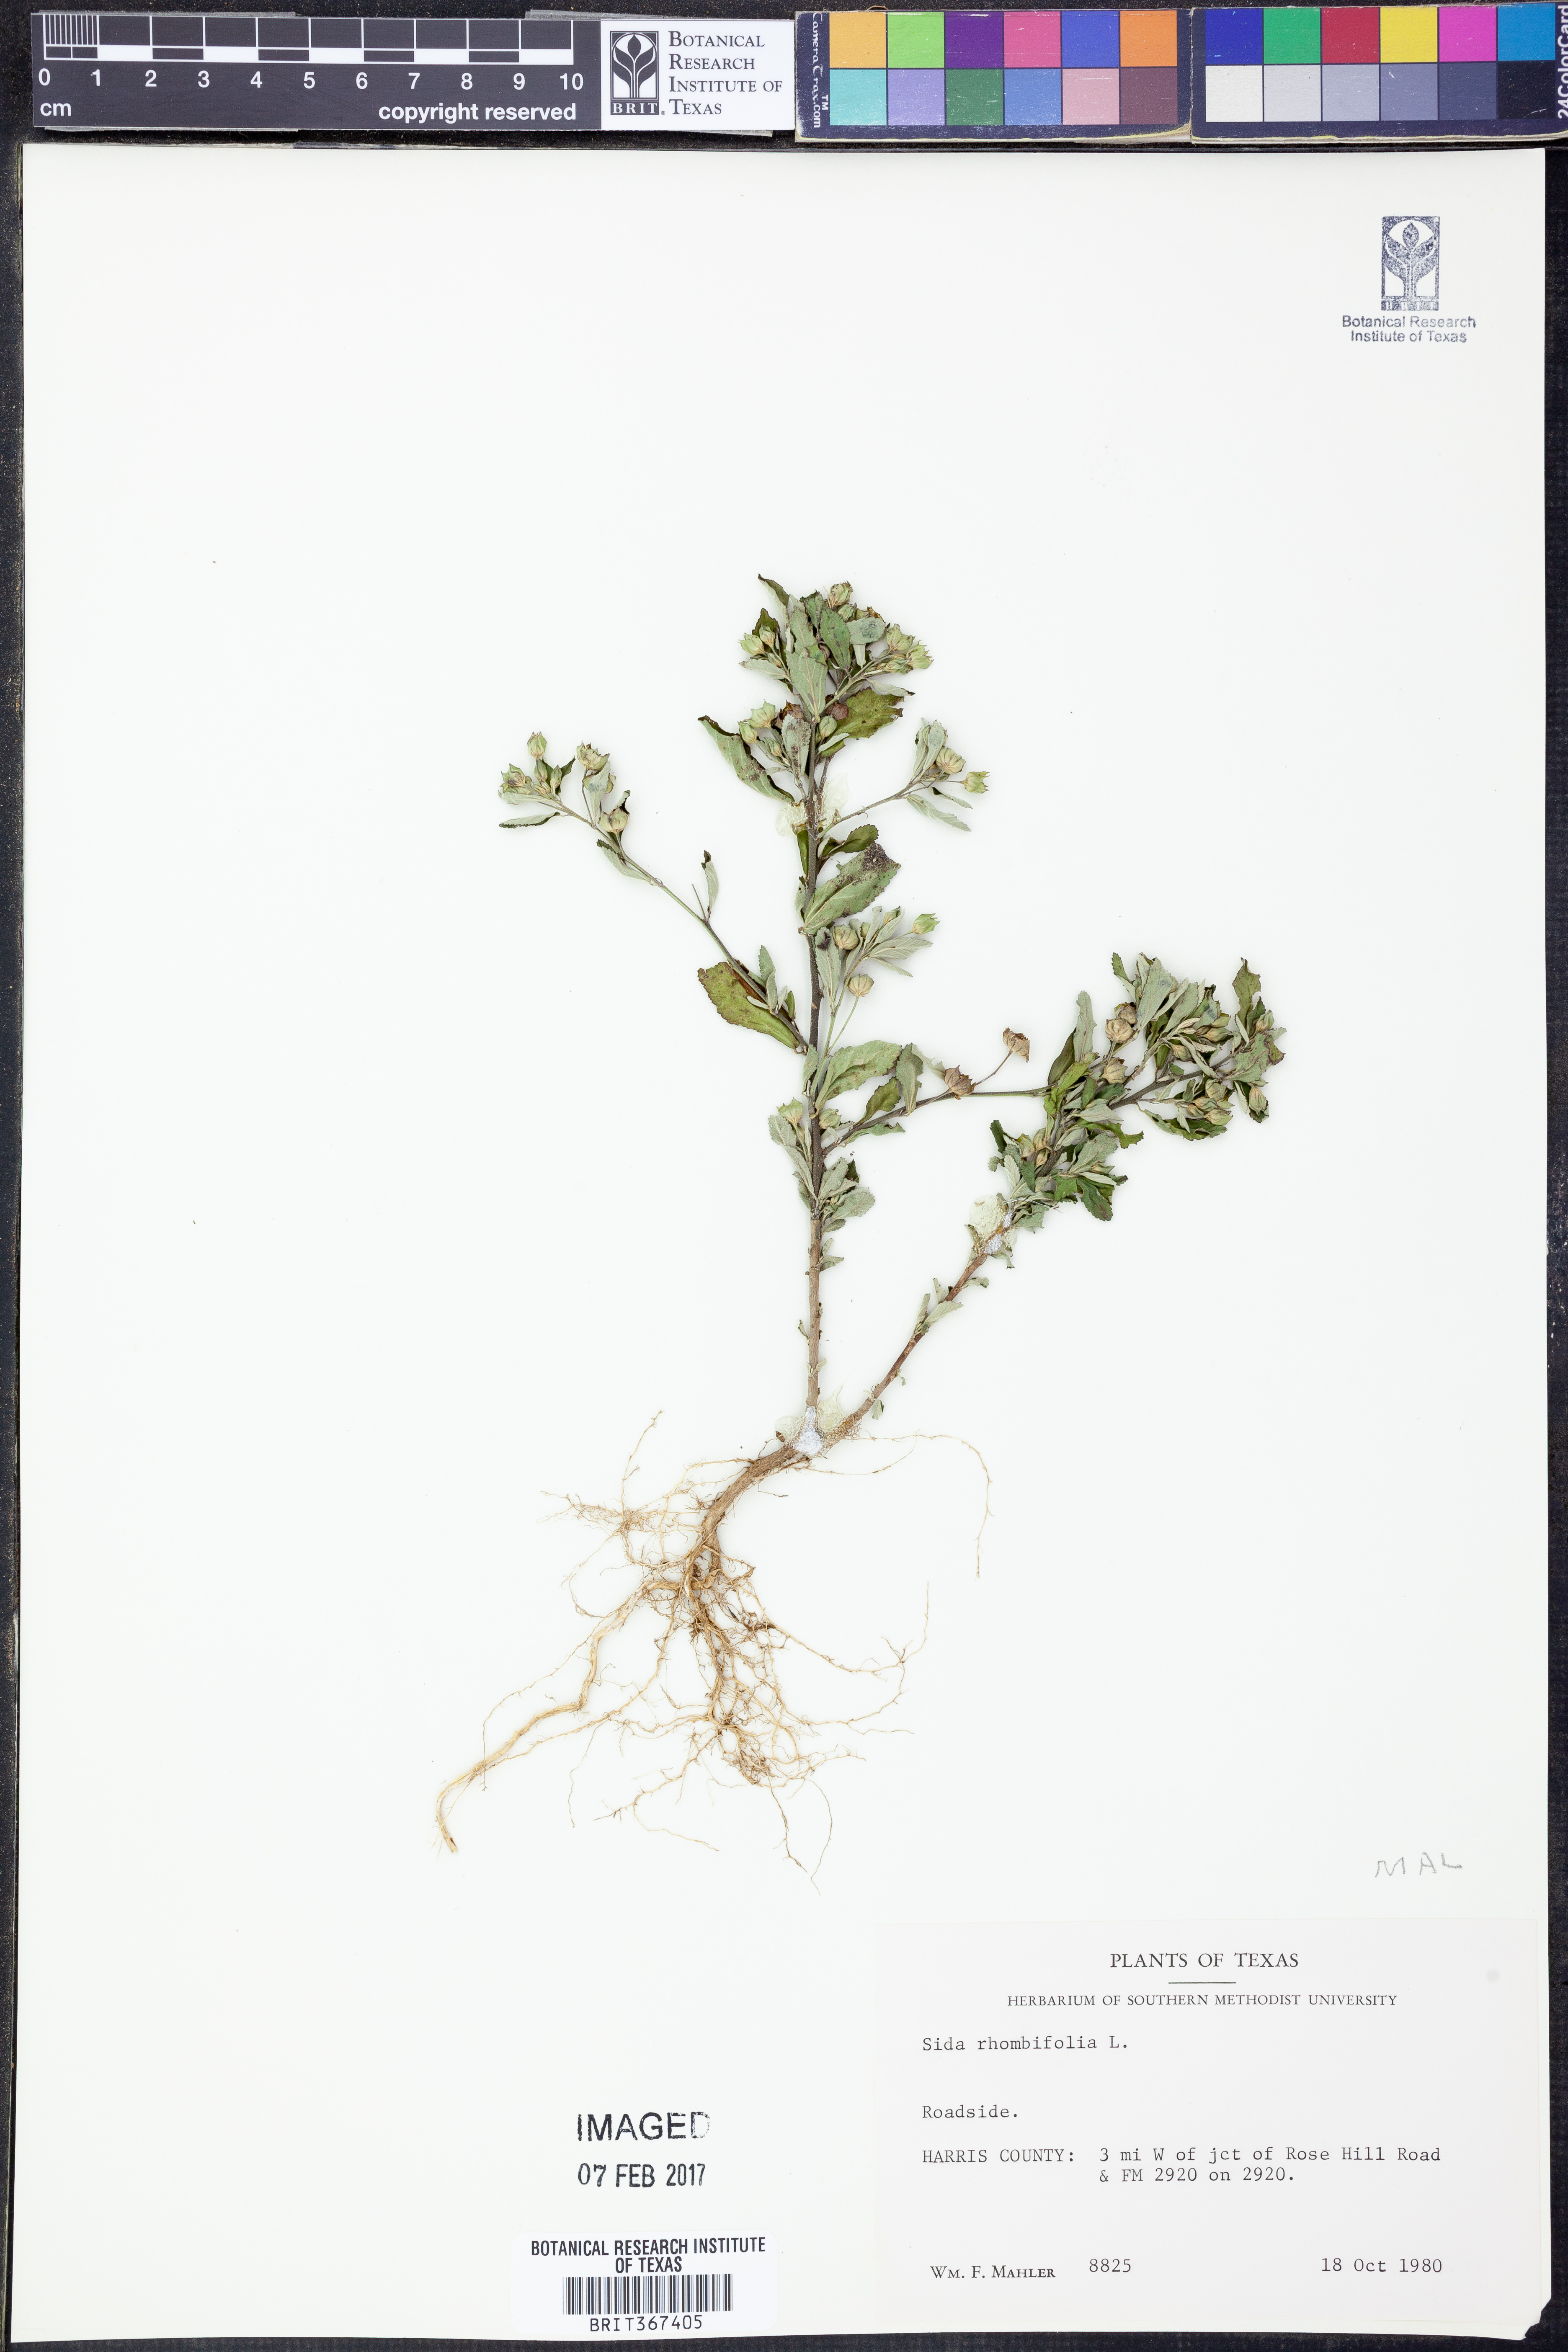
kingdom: Plantae
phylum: Tracheophyta
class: Magnoliopsida
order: Malvales
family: Malvaceae
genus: Sida
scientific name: Sida rhombifolia
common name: Queensland-hemp
